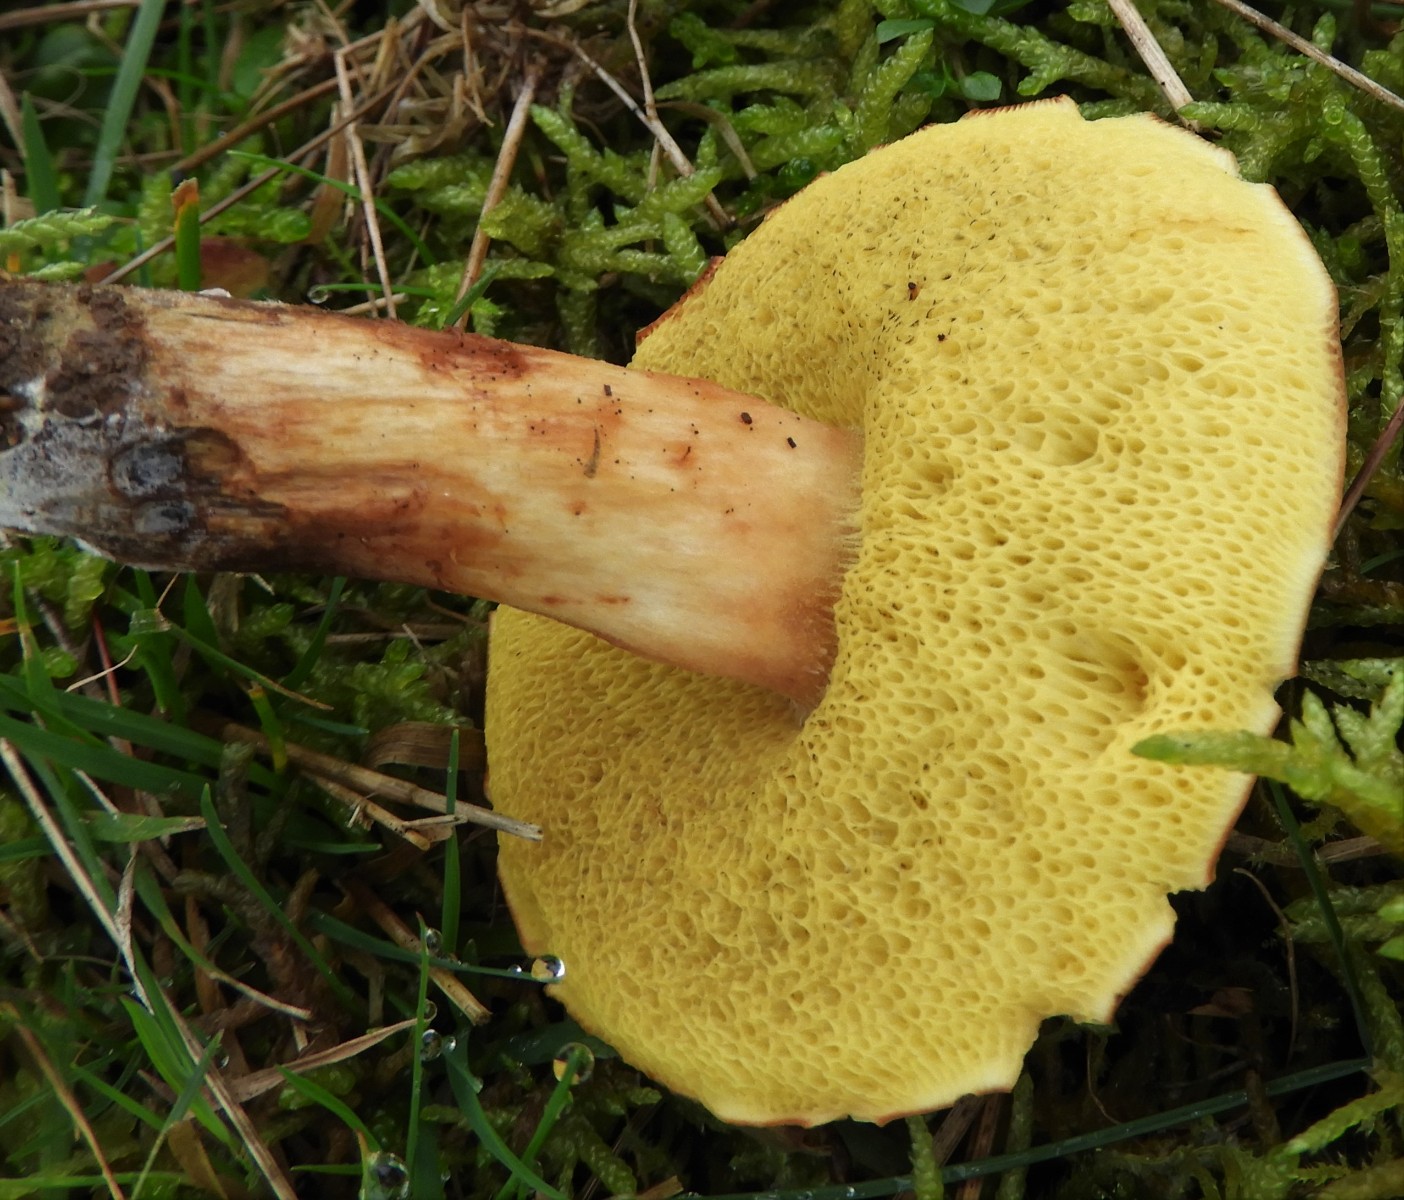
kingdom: Fungi
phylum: Basidiomycota
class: Agaricomycetes
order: Boletales
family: Boletaceae
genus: Xerocomus
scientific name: Xerocomus ferrugineus
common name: vaskeskinds-rørhat
